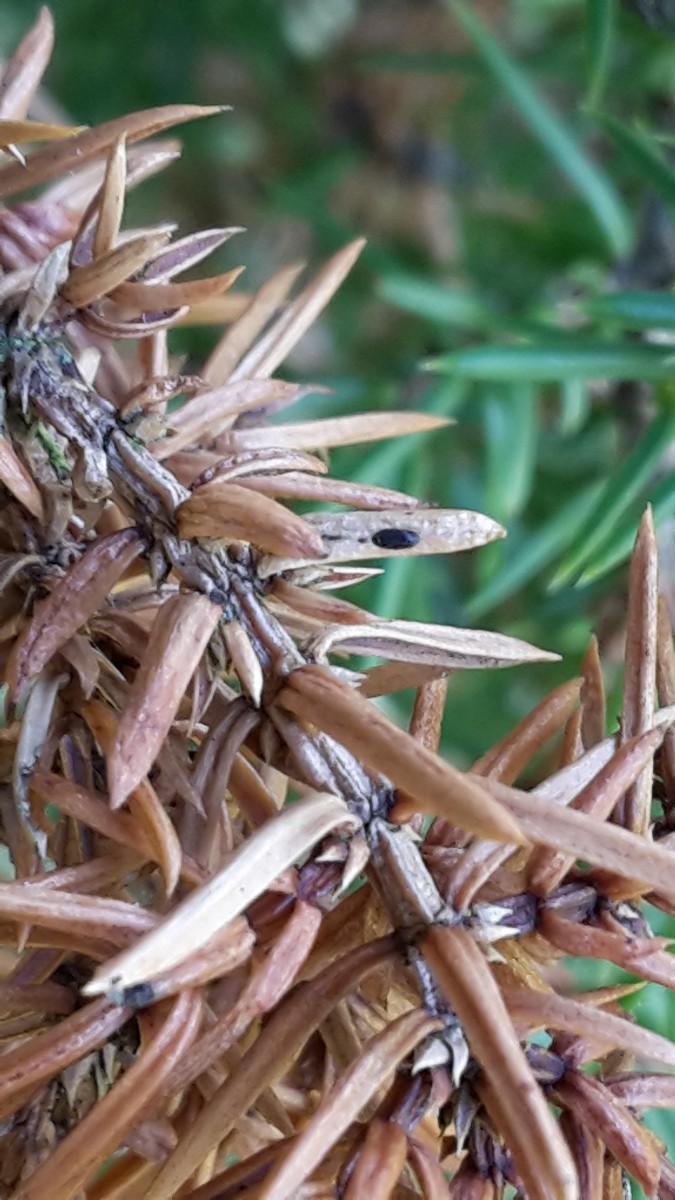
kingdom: Fungi
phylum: Ascomycota
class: Leotiomycetes
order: Rhytismatales
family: Rhytismataceae
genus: Lophodermium
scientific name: Lophodermium juniperinum
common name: ene-fureplet
